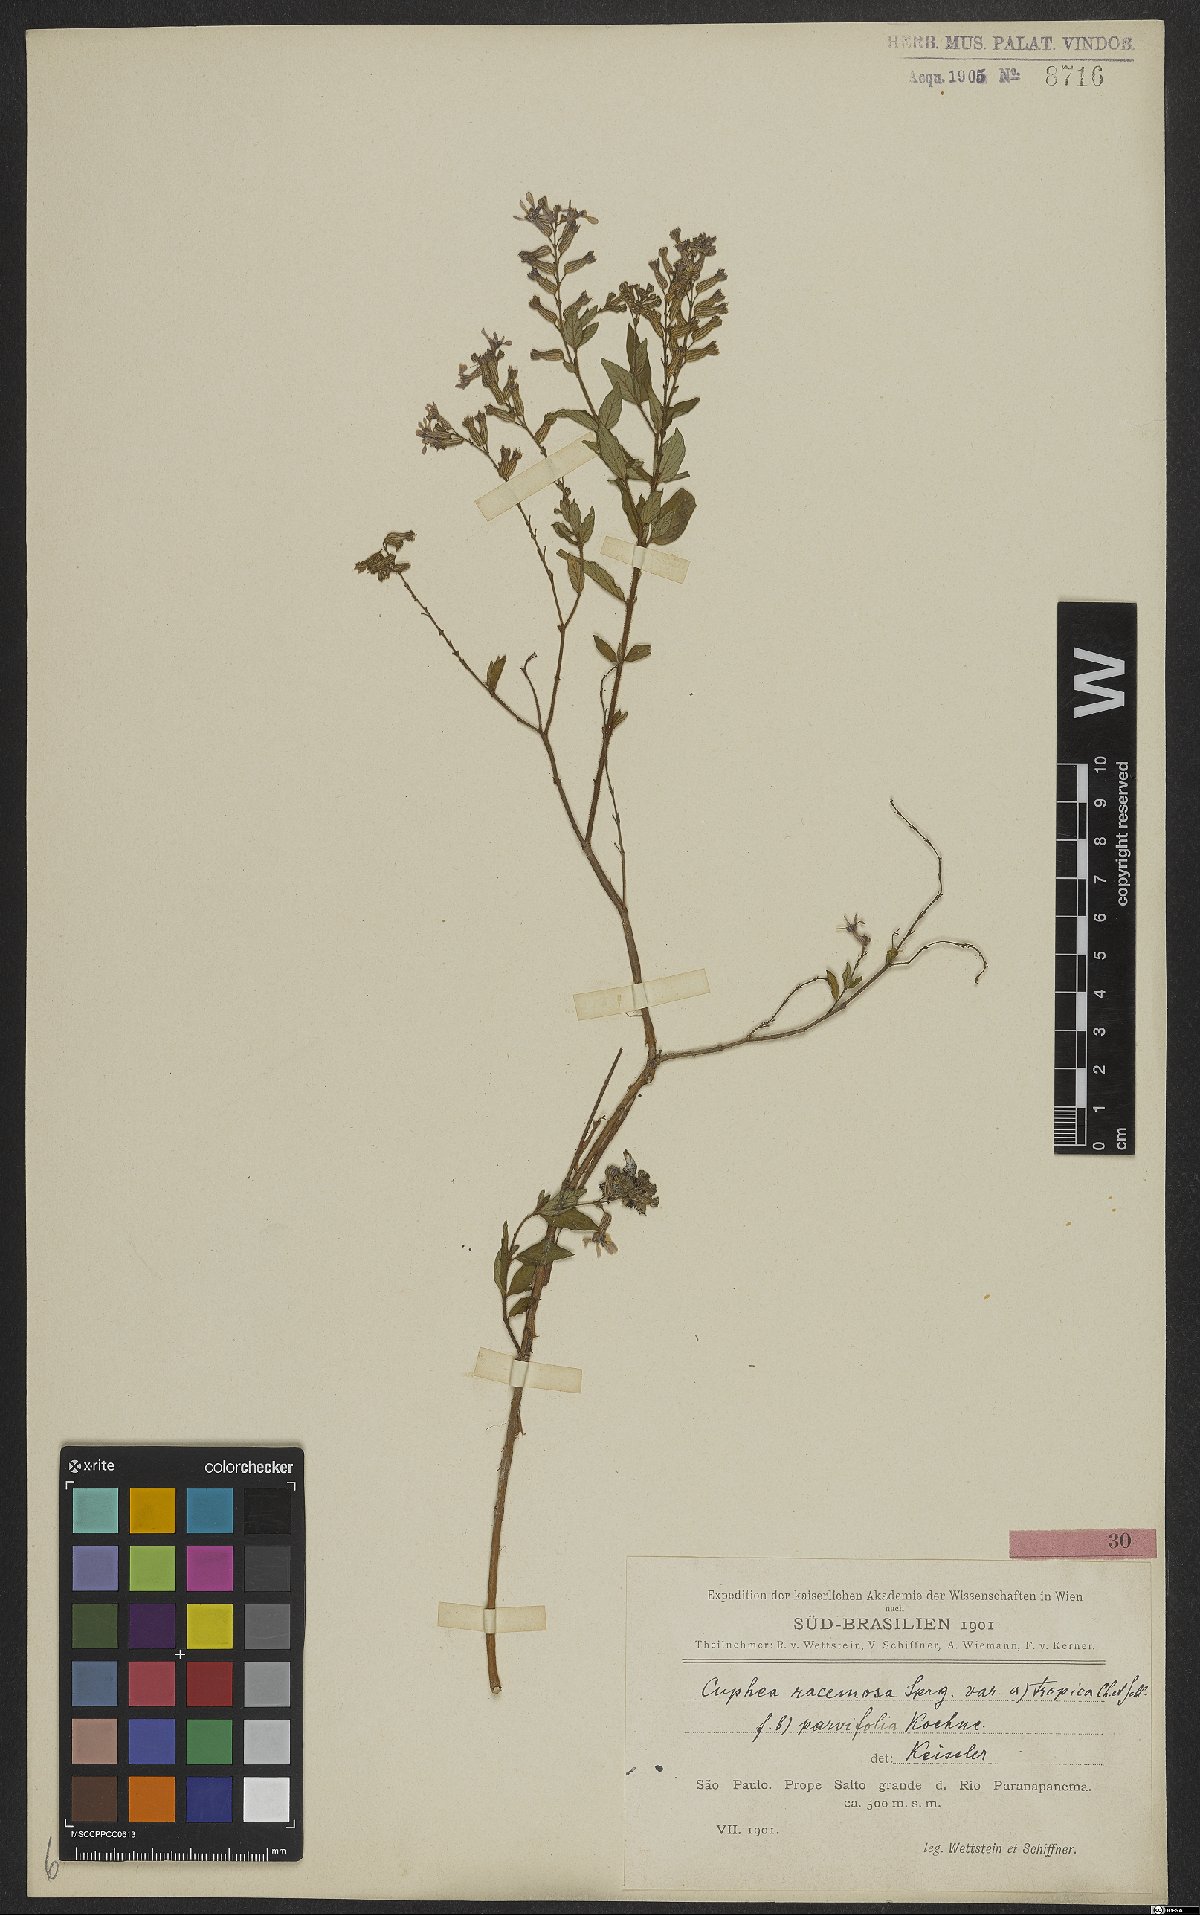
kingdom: Plantae
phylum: Tracheophyta
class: Magnoliopsida
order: Myrtales
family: Lythraceae
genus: Cuphea
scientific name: Cuphea racemosa
